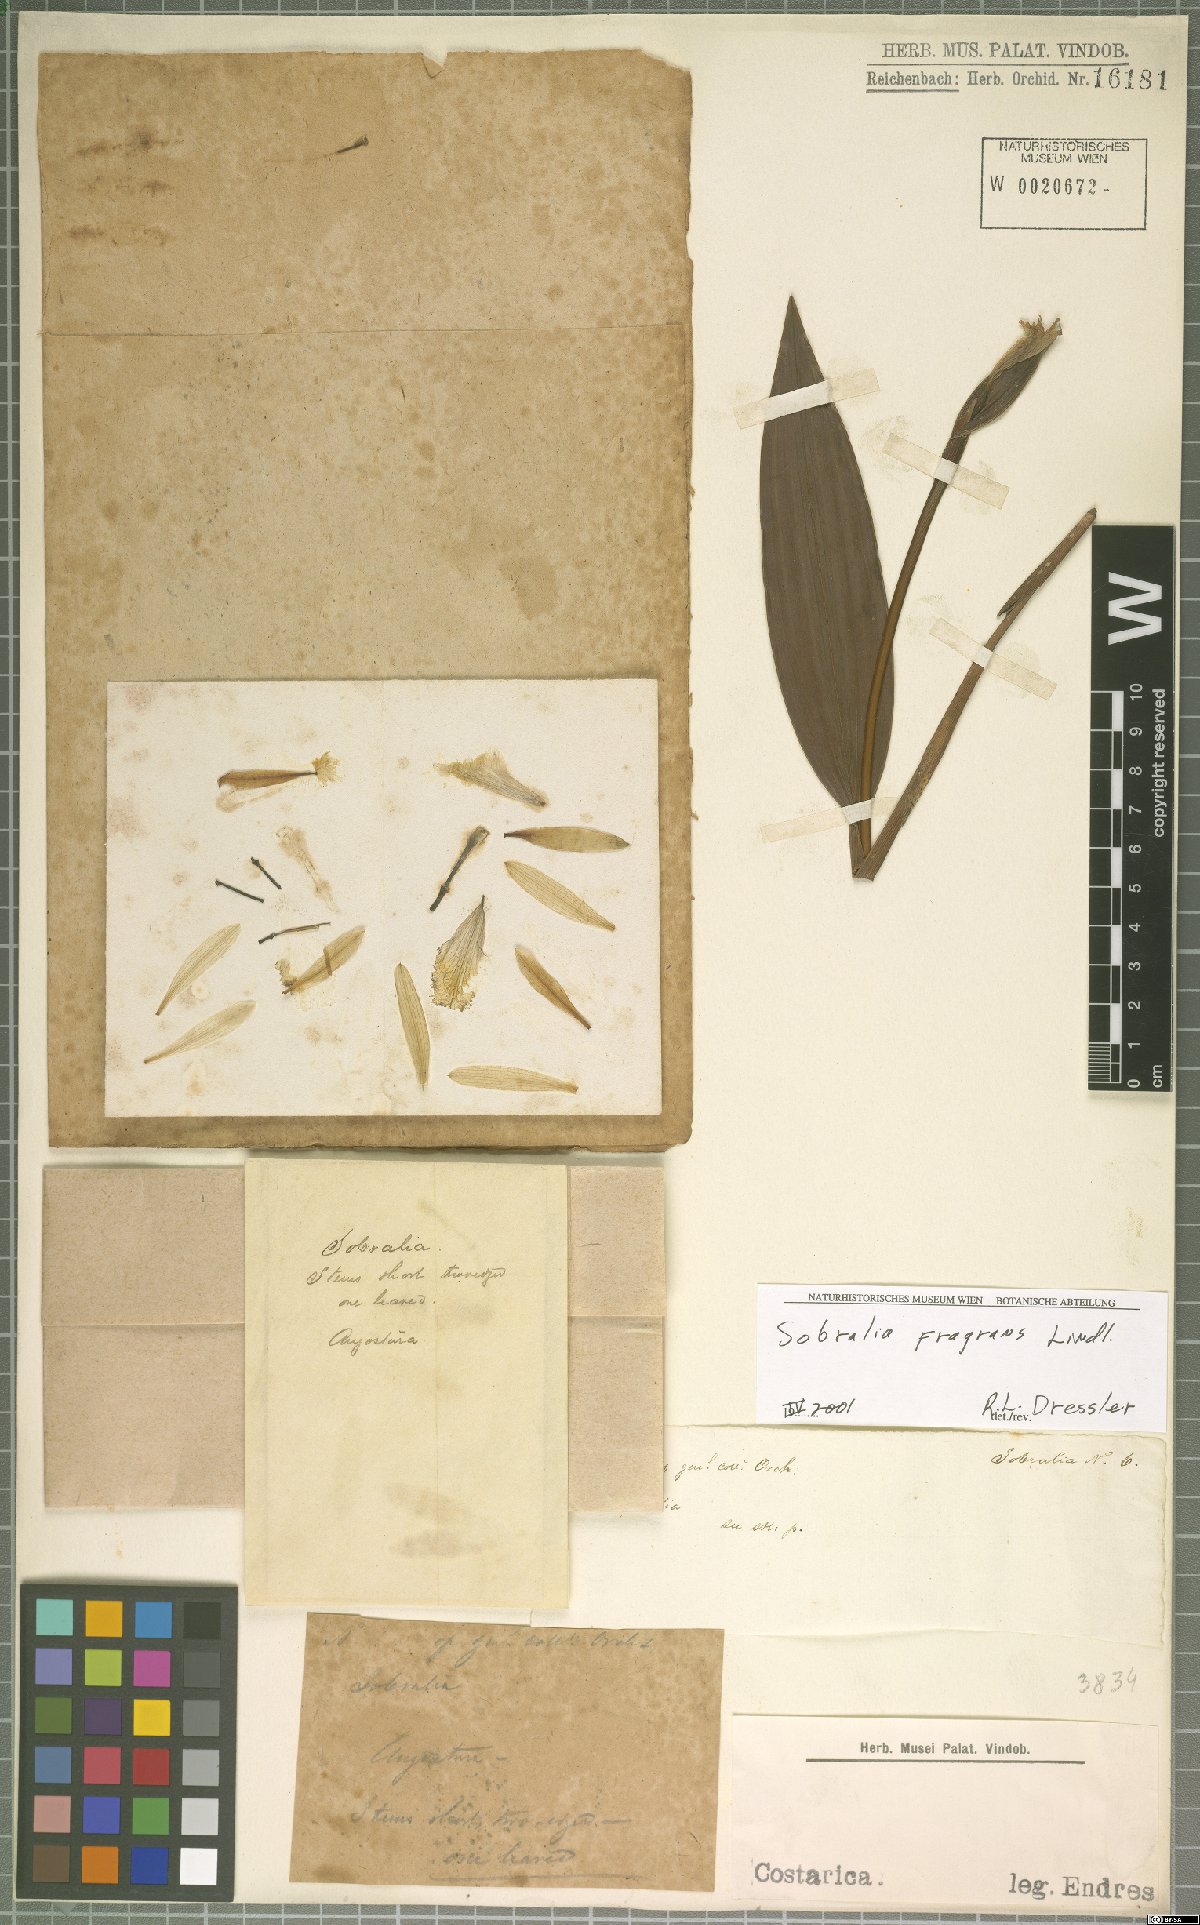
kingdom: Plantae
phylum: Tracheophyta
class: Liliopsida
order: Asparagales
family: Orchidaceae
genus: Stelis
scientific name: Stelis purpurascens
